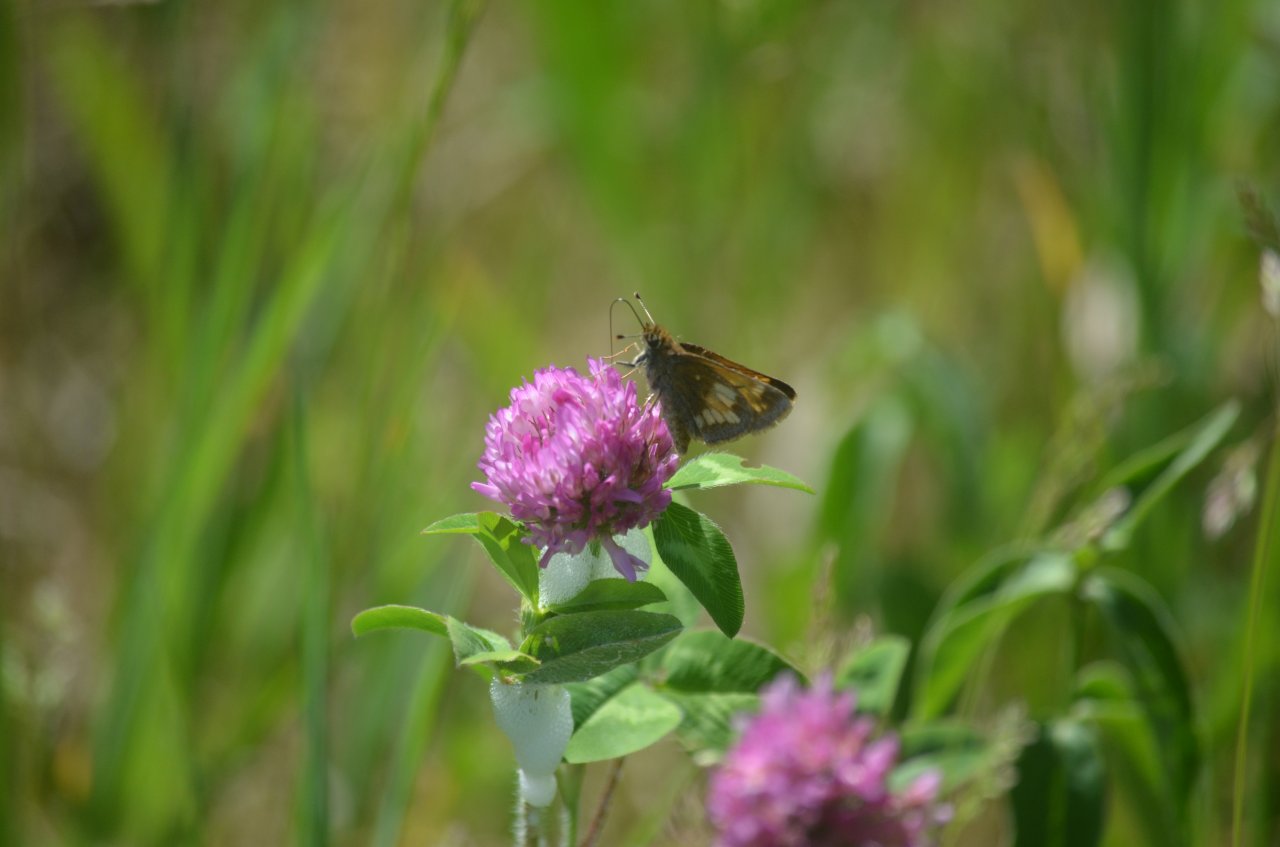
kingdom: Animalia
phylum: Arthropoda
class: Insecta
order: Lepidoptera
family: Hesperiidae
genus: Lon
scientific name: Lon hobomok
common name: Hobomok Skipper
